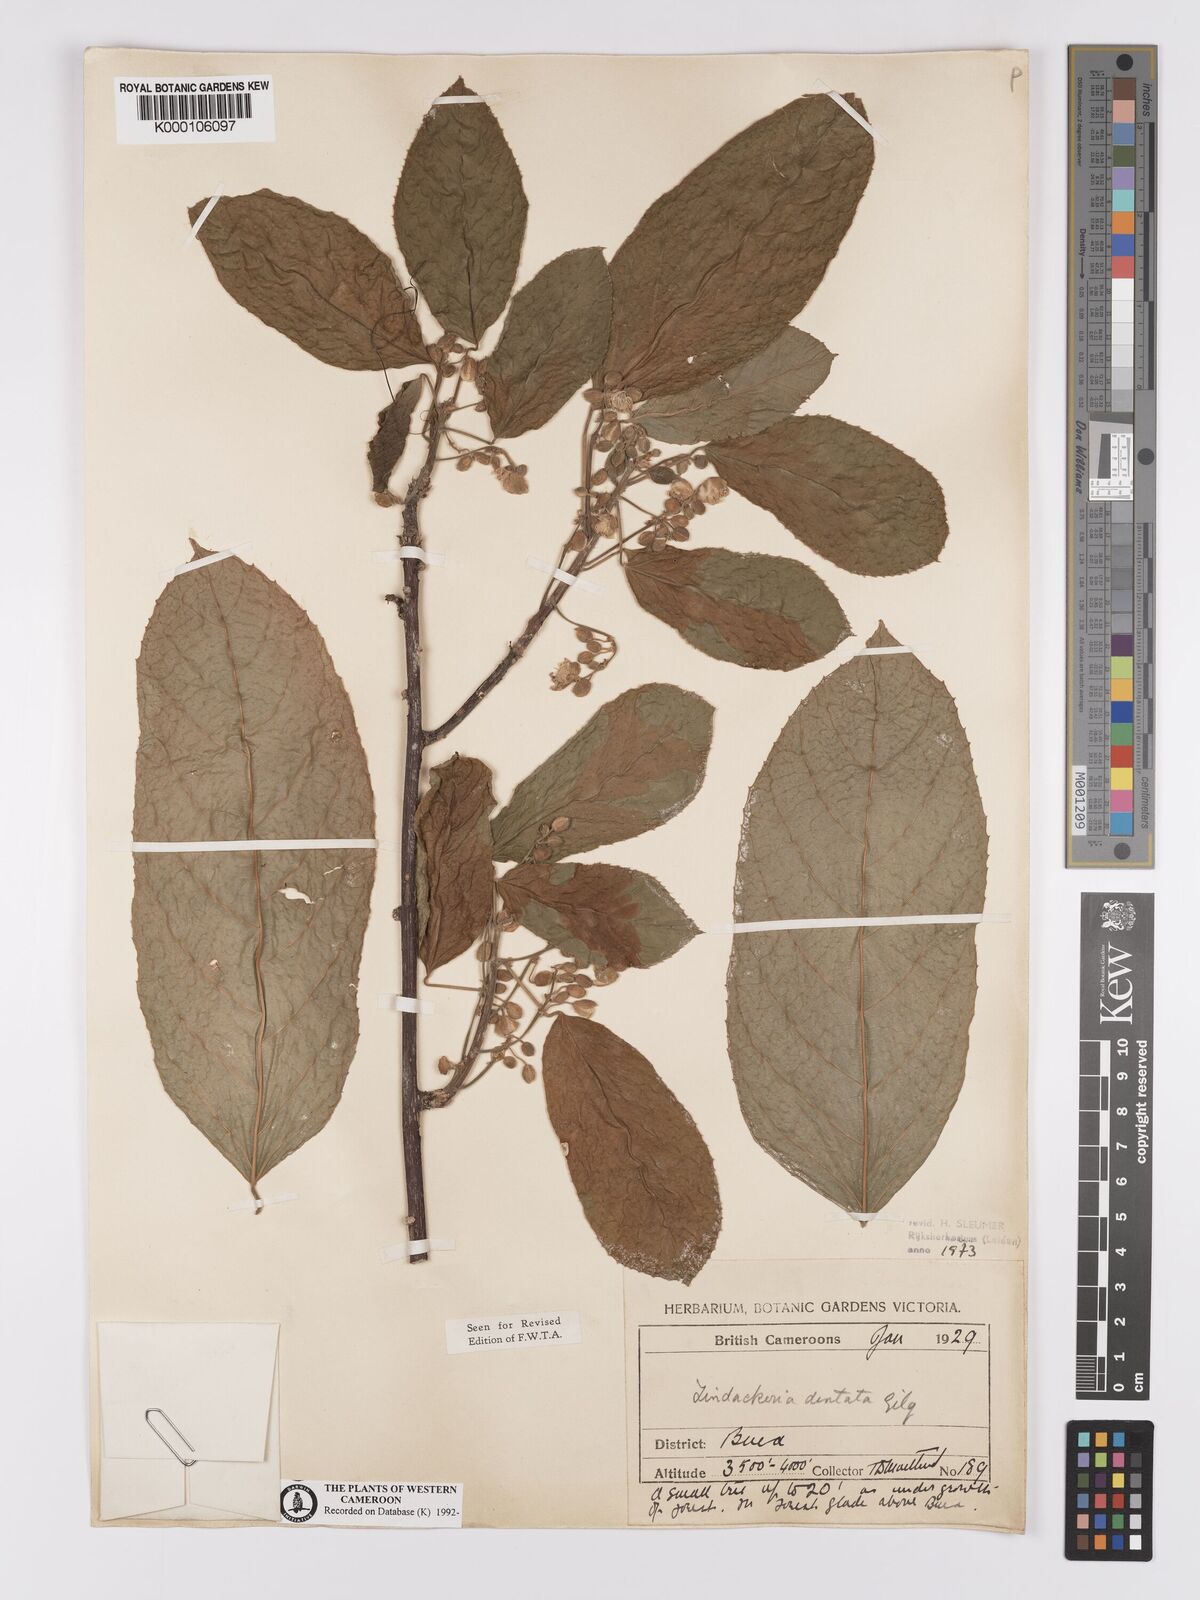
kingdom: Plantae
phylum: Tracheophyta
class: Magnoliopsida
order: Malpighiales
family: Achariaceae
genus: Lindackeria
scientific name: Lindackeria dentata
